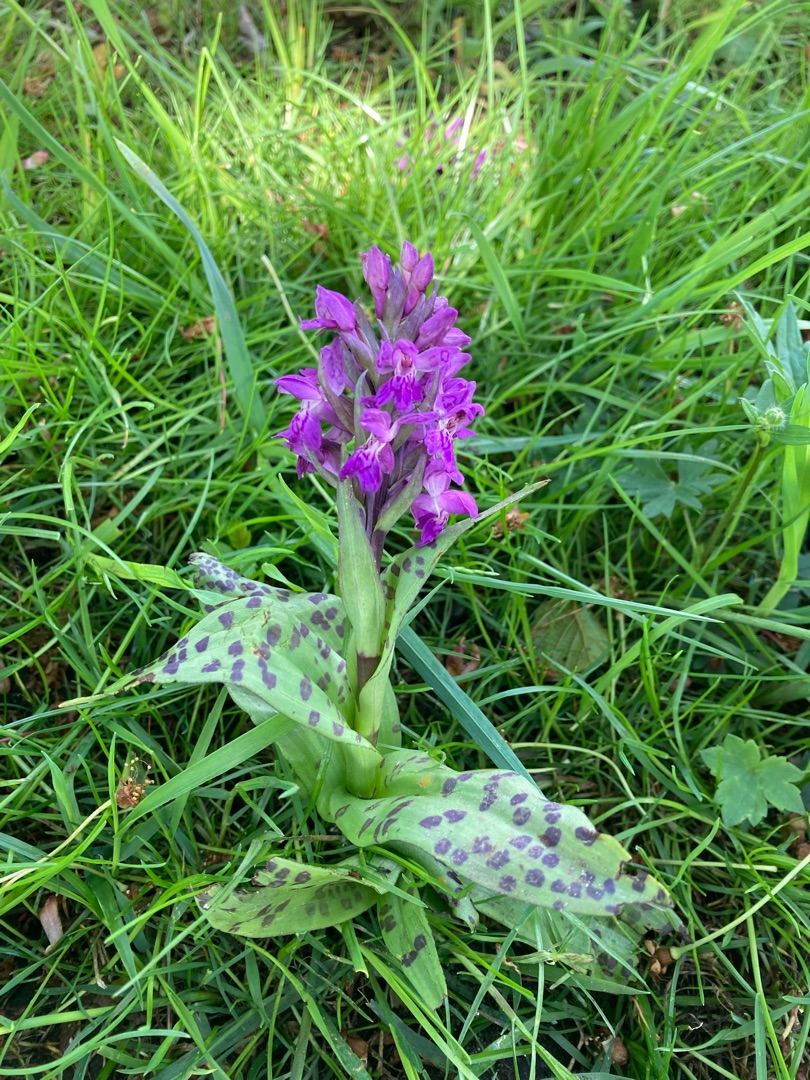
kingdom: Plantae
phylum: Tracheophyta
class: Liliopsida
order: Asparagales
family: Orchidaceae
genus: Dactylorhiza
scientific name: Dactylorhiza majalis
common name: Maj-gøgeurt
